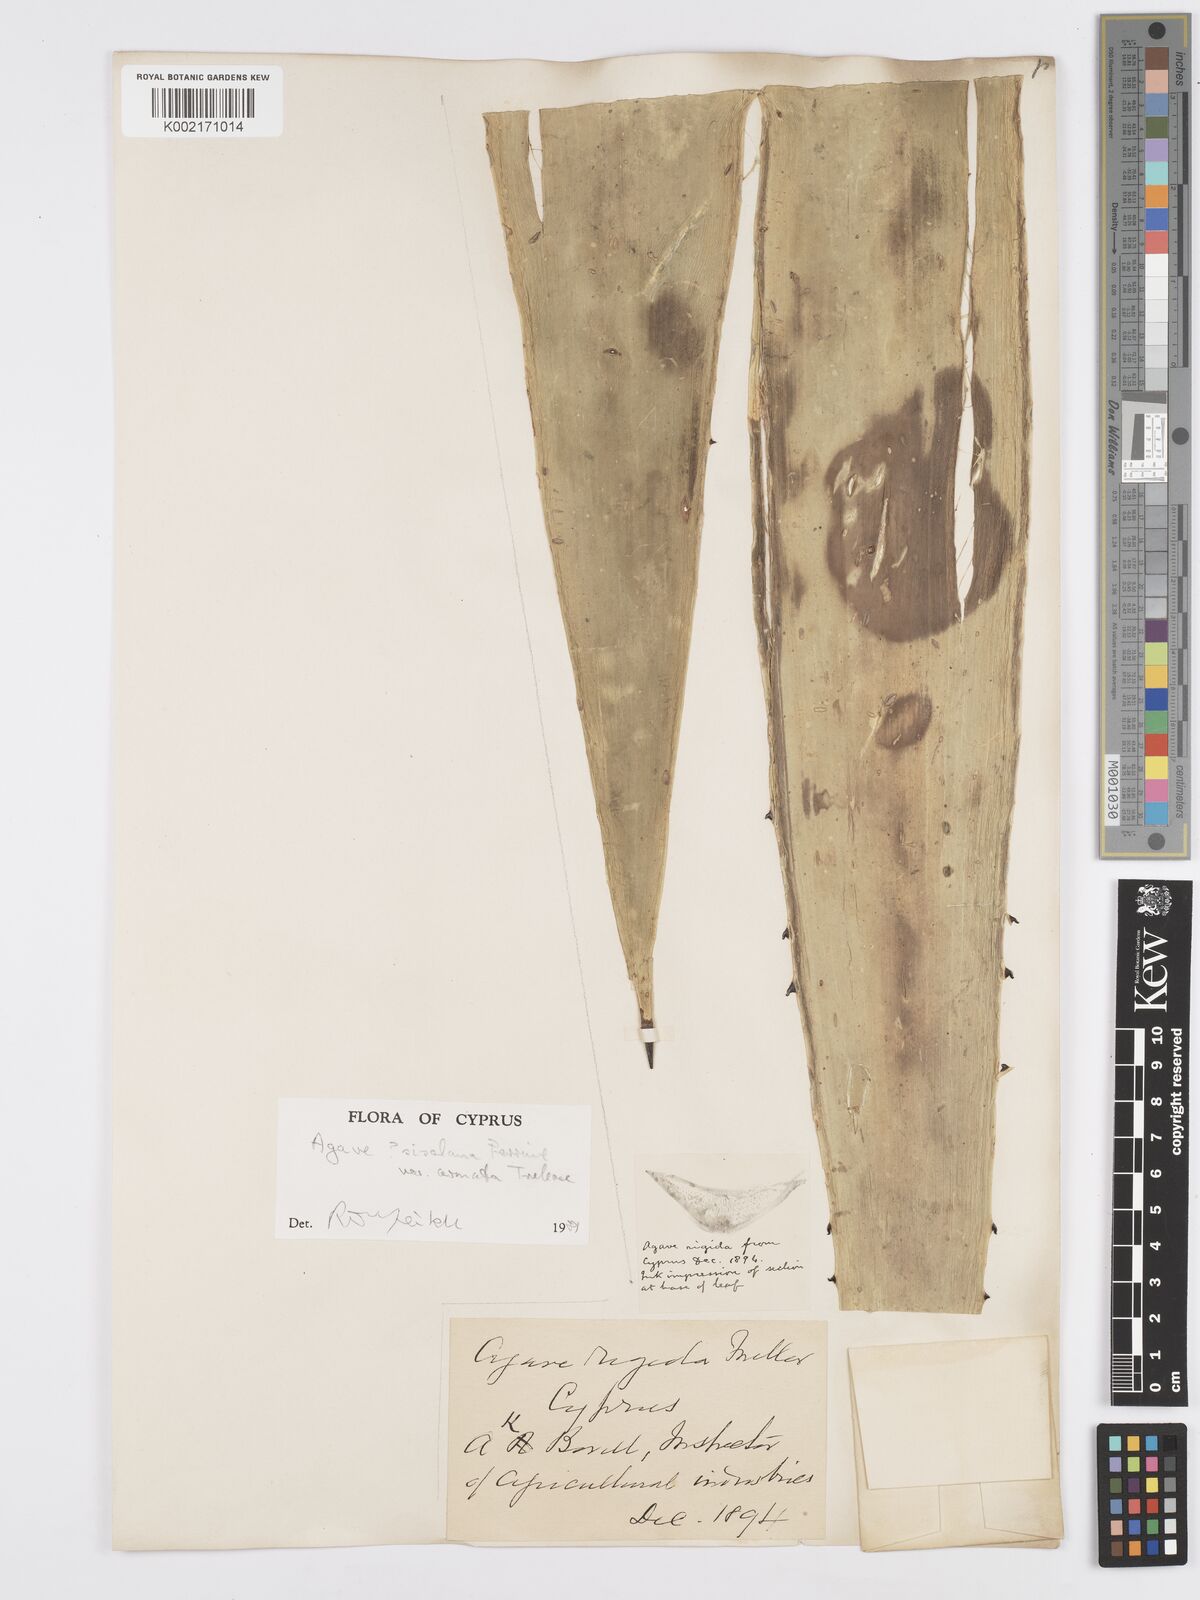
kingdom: Plantae
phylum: Tracheophyta
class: Liliopsida
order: Asparagales
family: Asparagaceae
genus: Agave
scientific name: Agave americana
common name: Centuryplant
